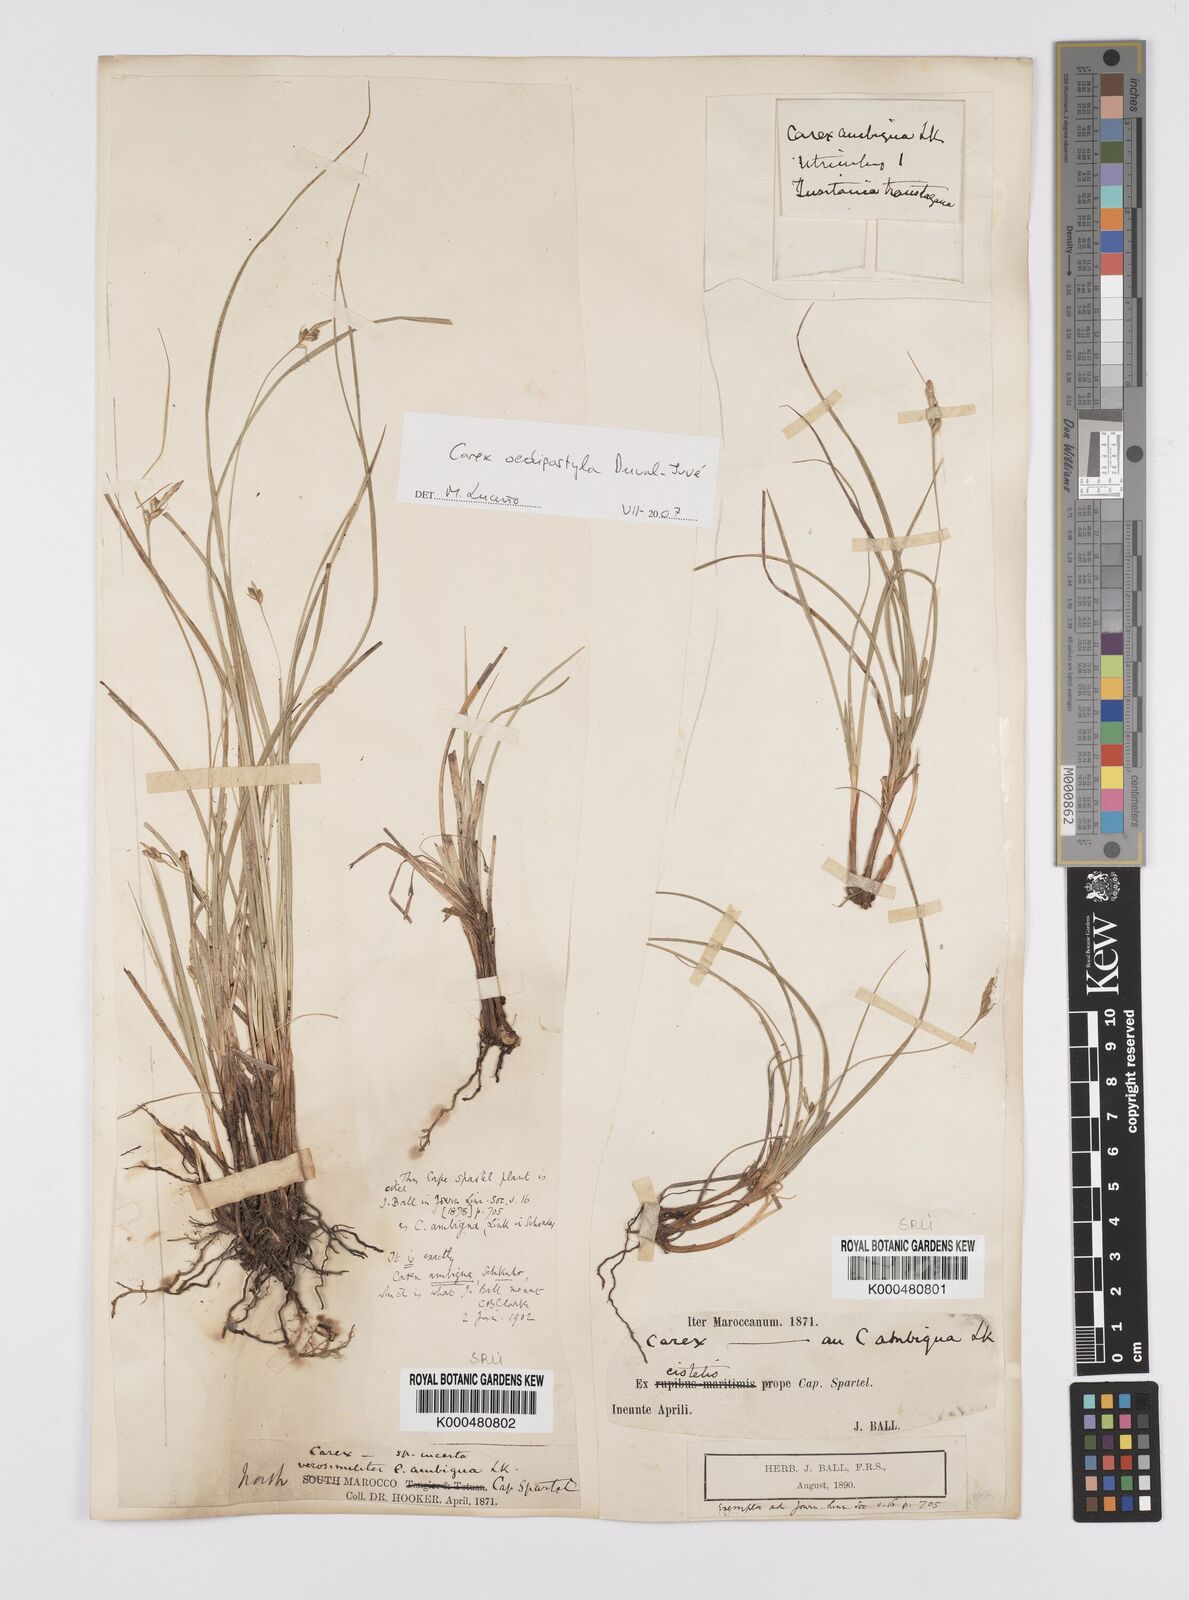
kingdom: Plantae
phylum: Tracheophyta
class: Liliopsida
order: Poales
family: Cyperaceae
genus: Carex
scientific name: Carex oedipostyla
